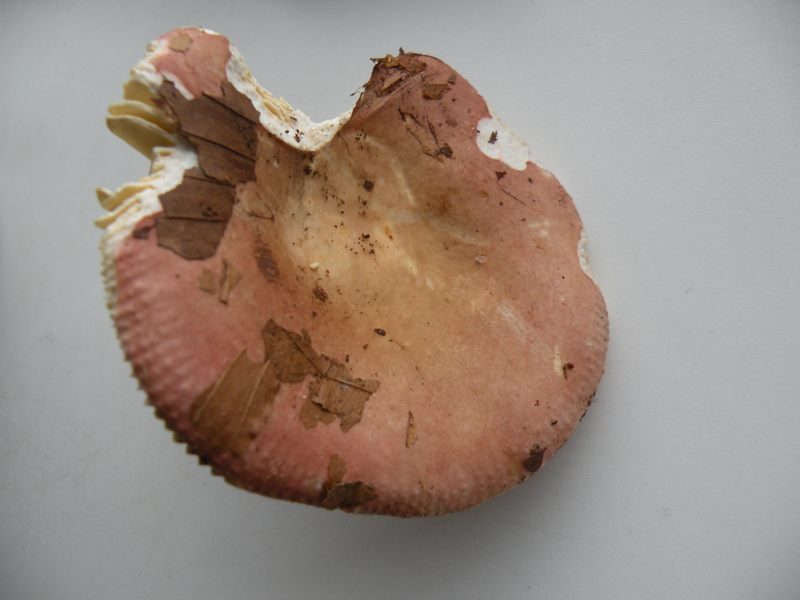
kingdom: Fungi
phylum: Basidiomycota
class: Agaricomycetes
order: Russulales
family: Russulaceae
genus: Russula
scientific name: Russula veternosa
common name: blødkødet skørhat
